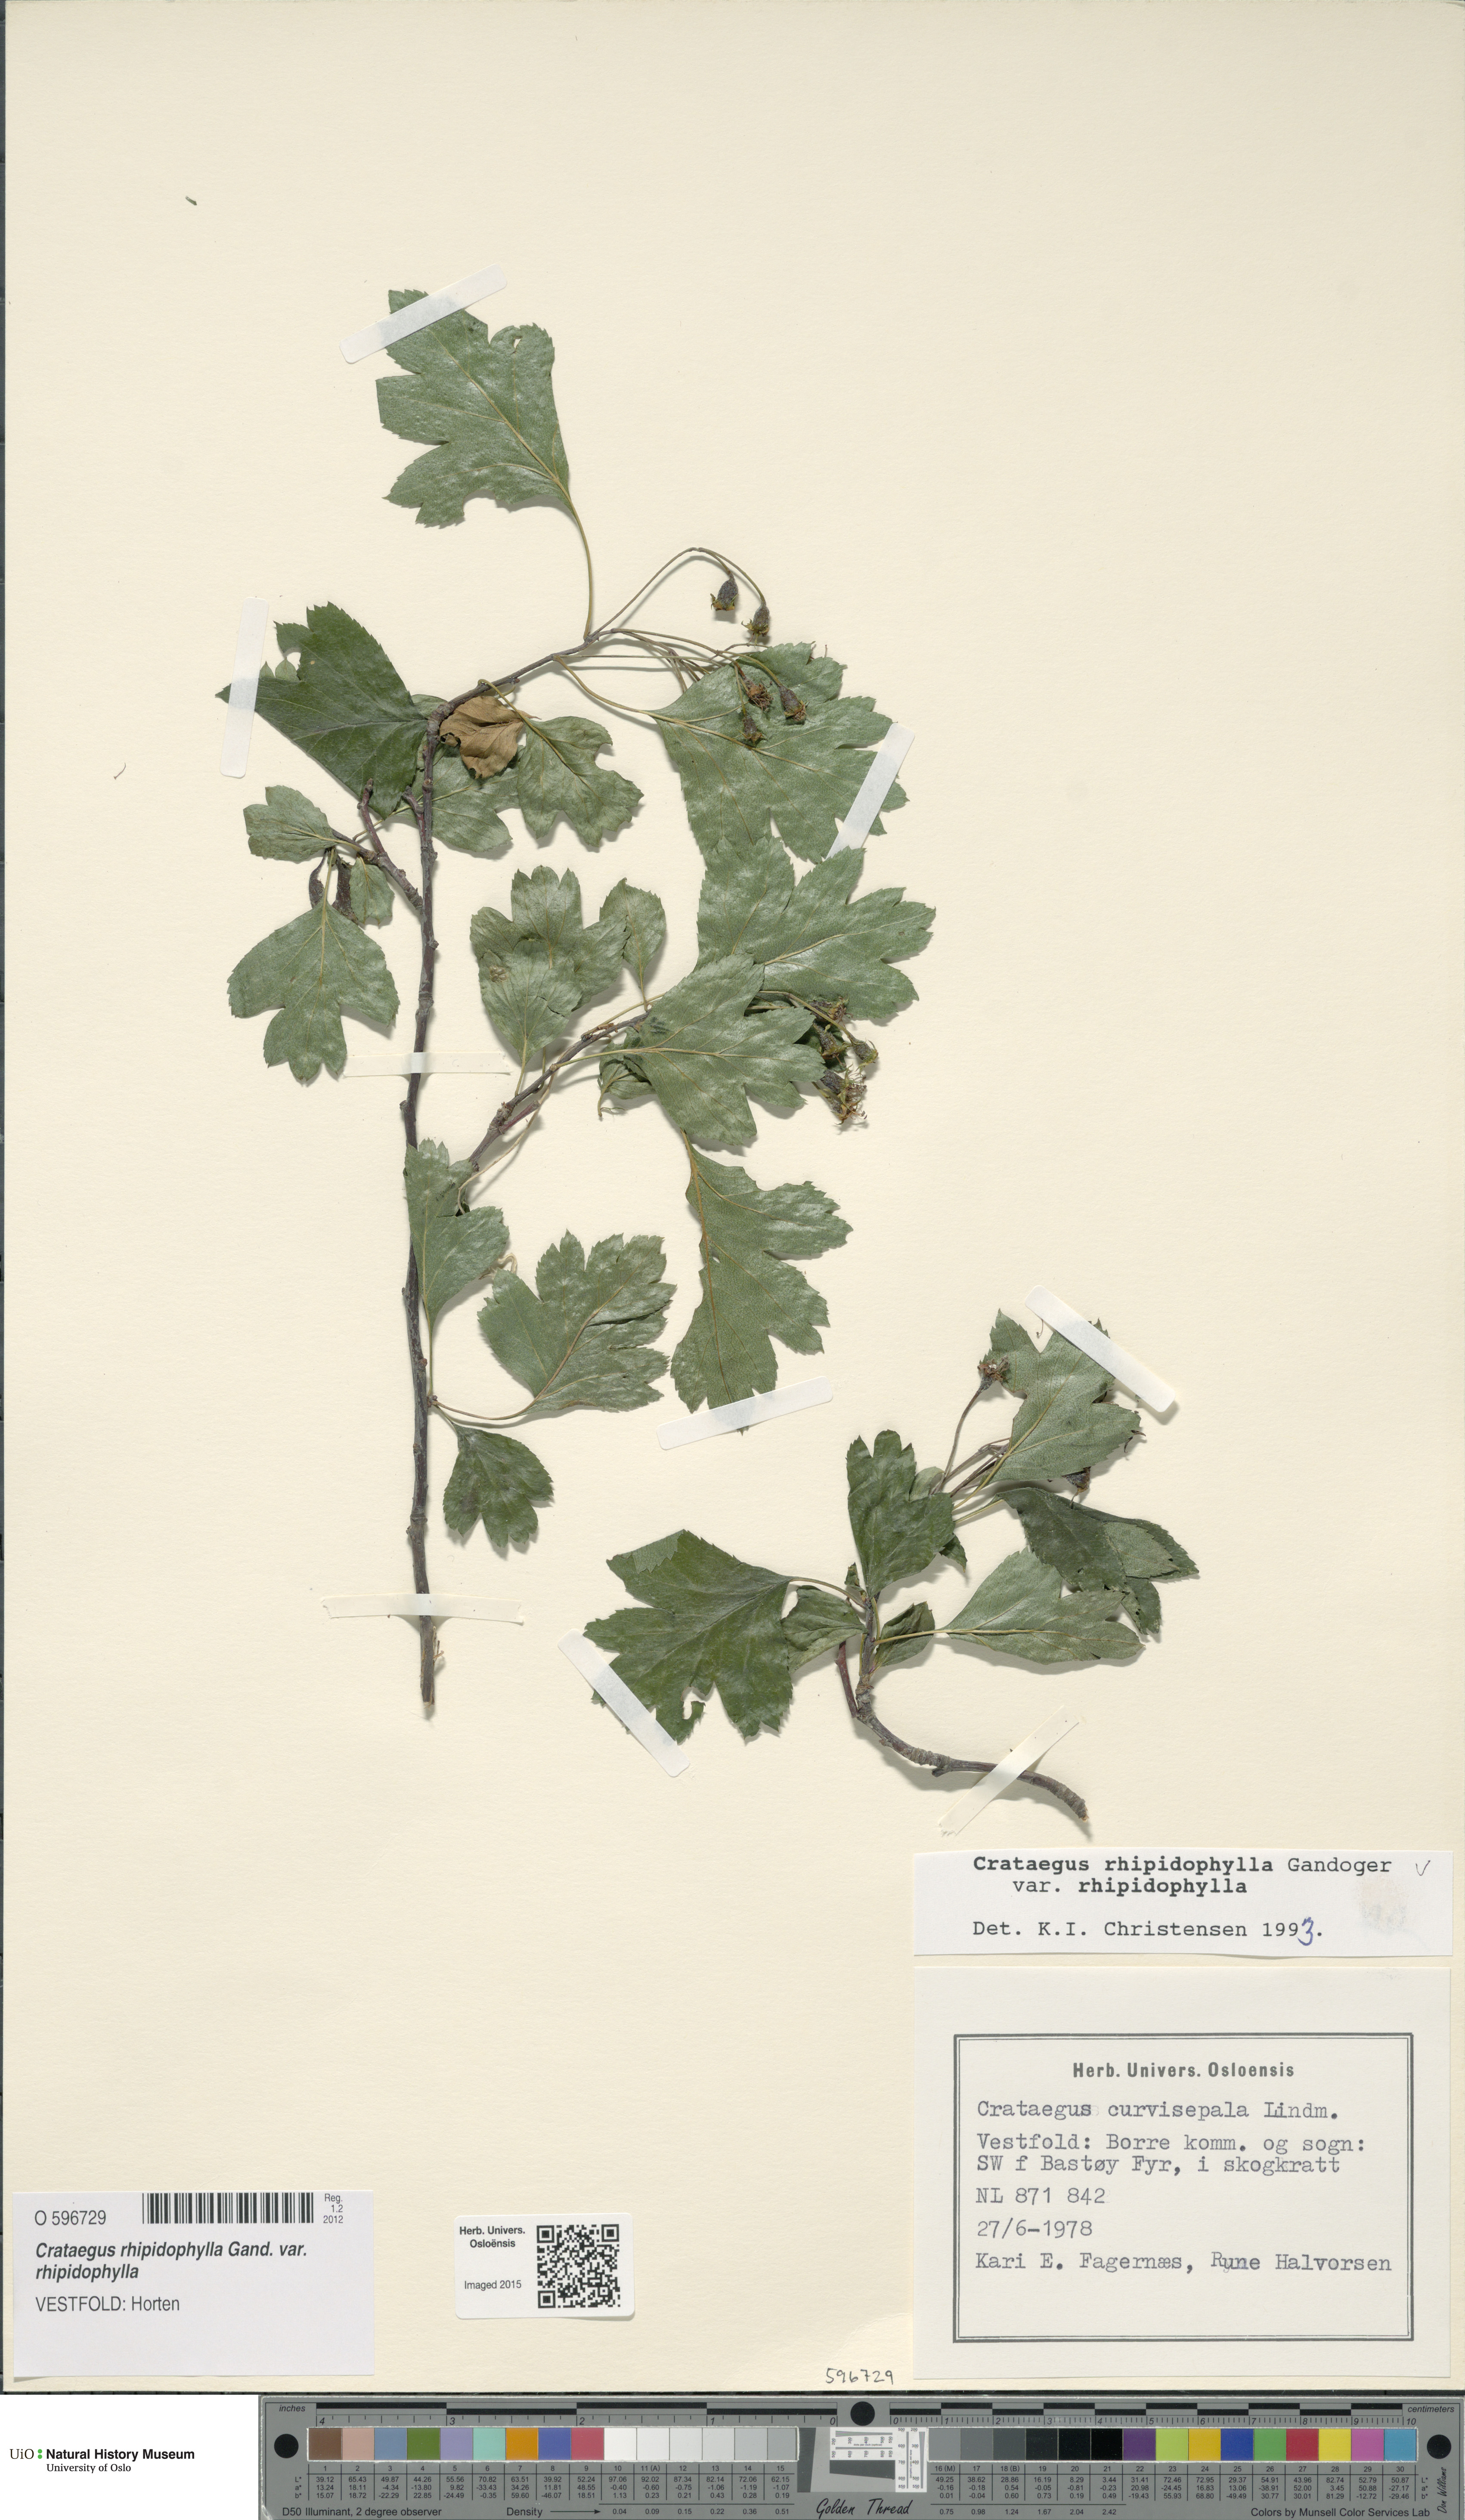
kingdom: Plantae
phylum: Tracheophyta
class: Magnoliopsida
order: Rosales
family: Rosaceae
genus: Crataegus
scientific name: Crataegus rhipidophylla
